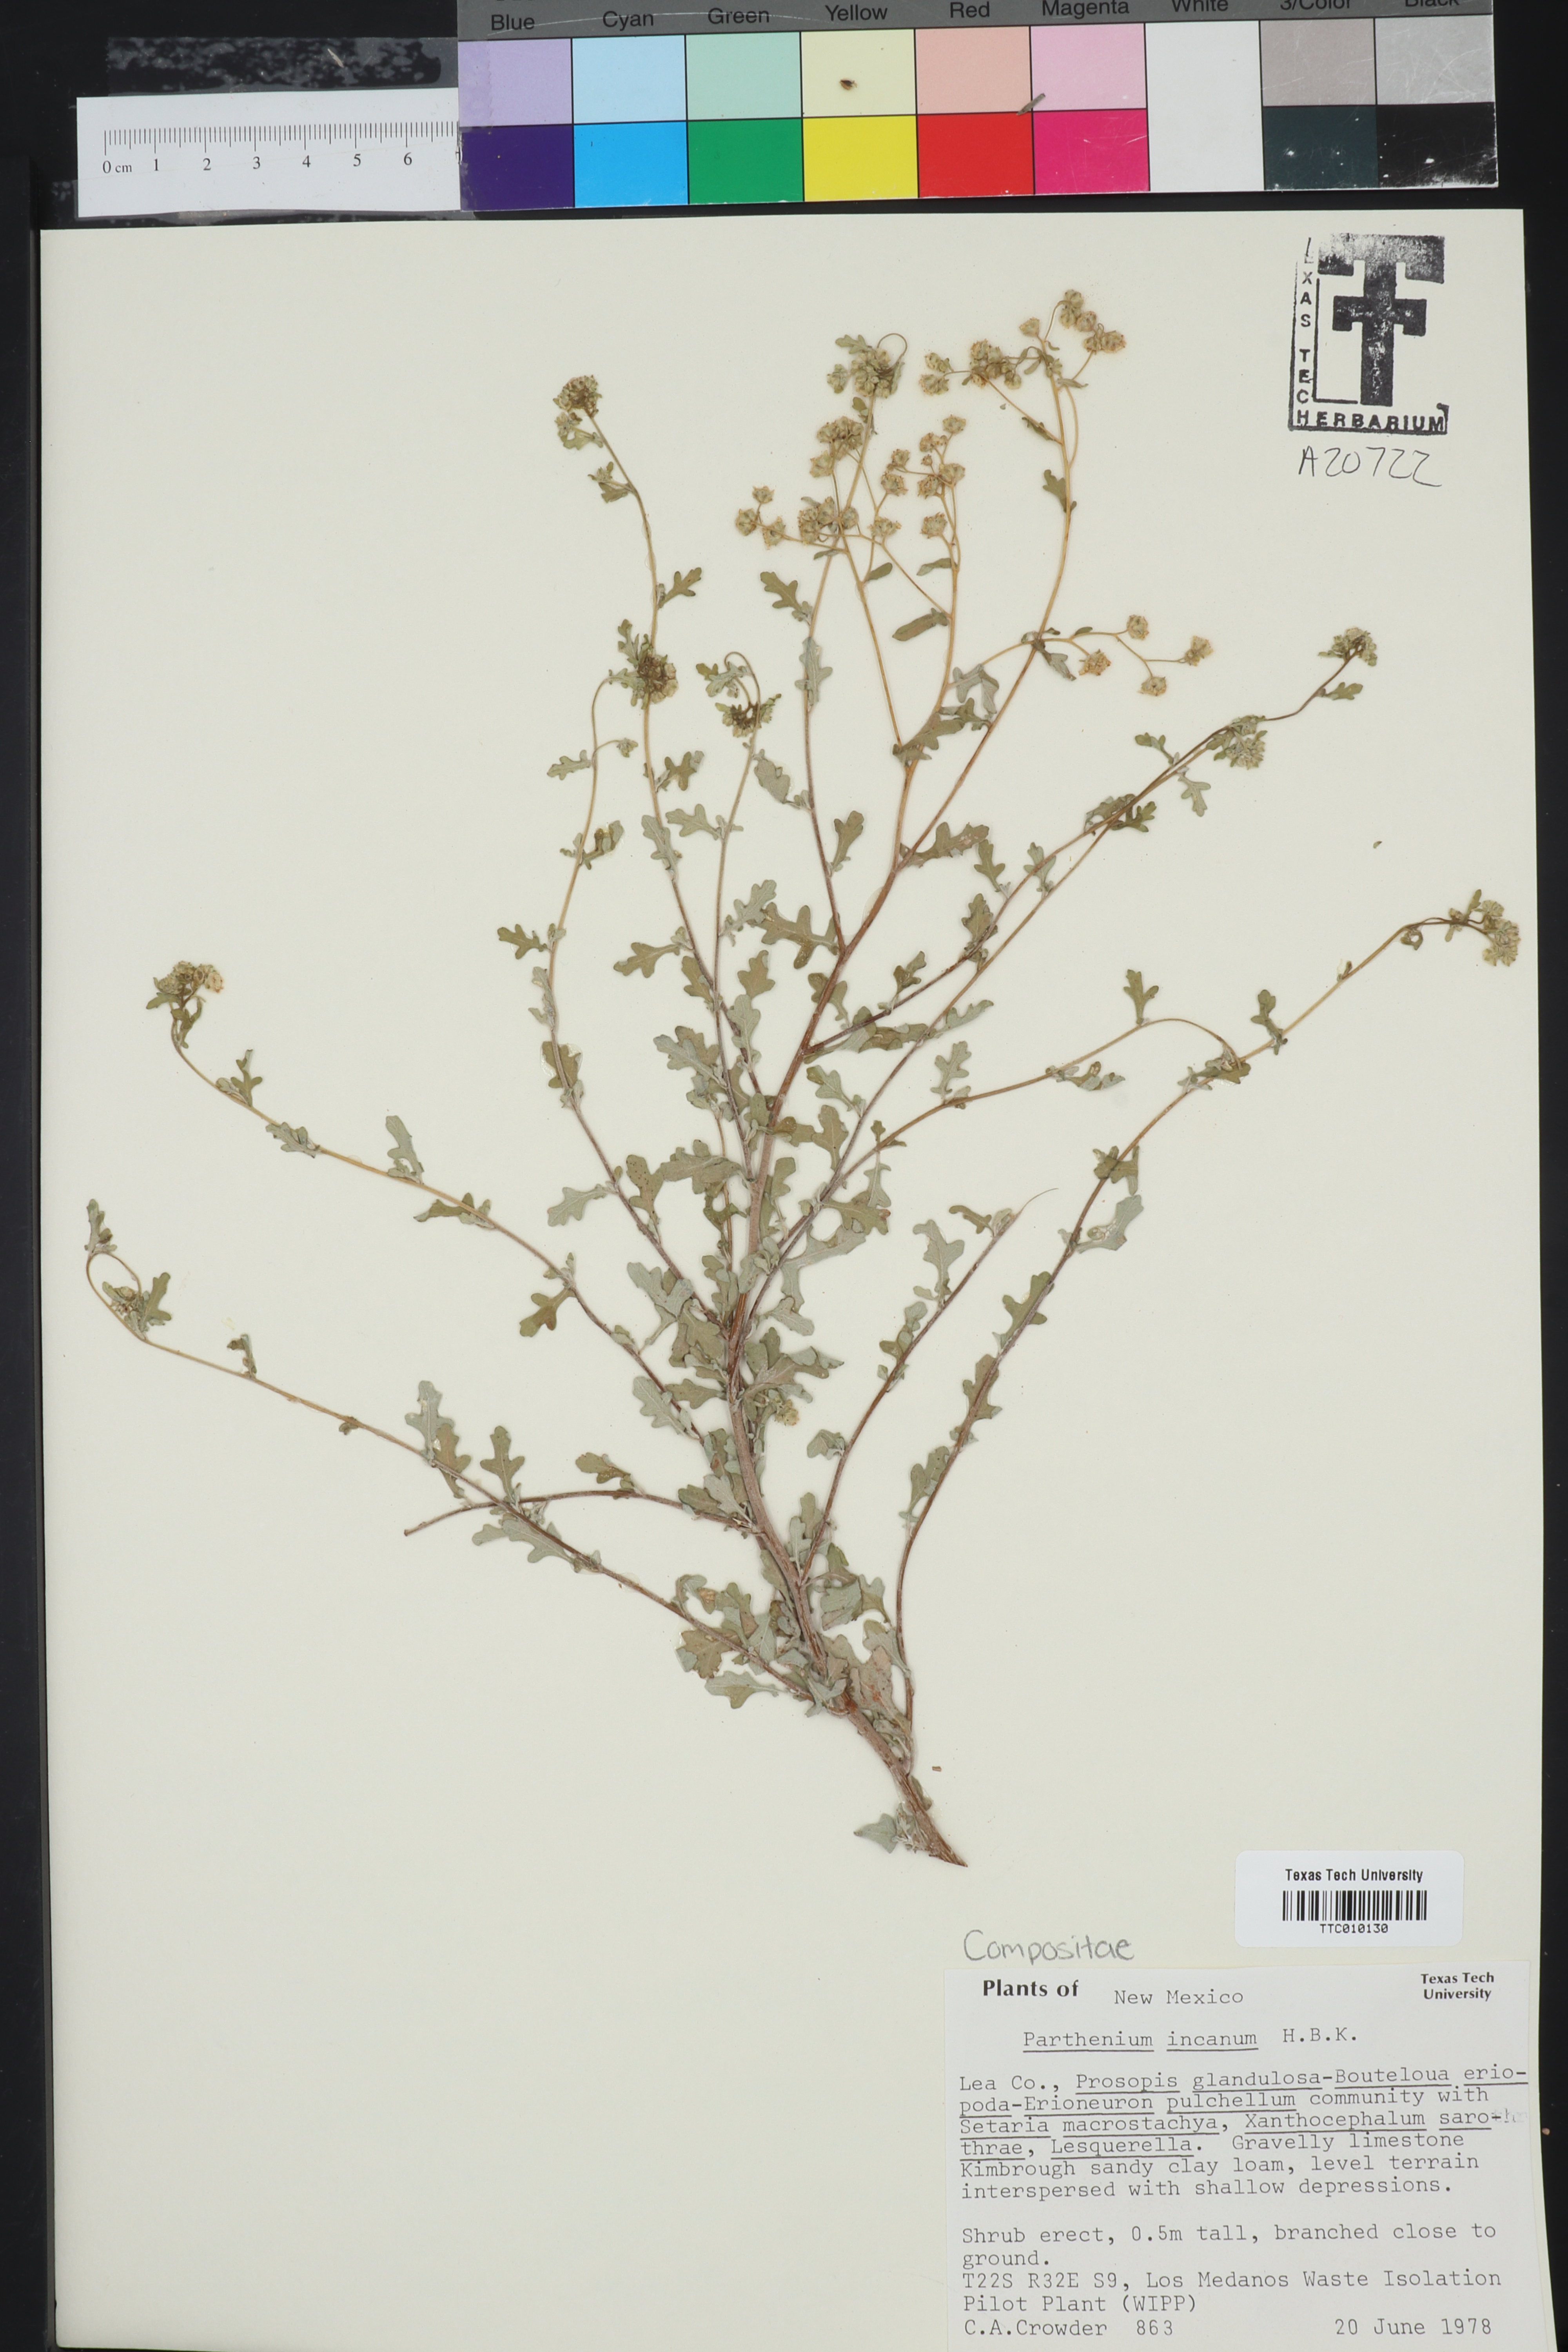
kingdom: Plantae
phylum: Tracheophyta
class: Magnoliopsida
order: Asterales
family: Asteraceae
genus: Parthenium
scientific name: Parthenium incanum
